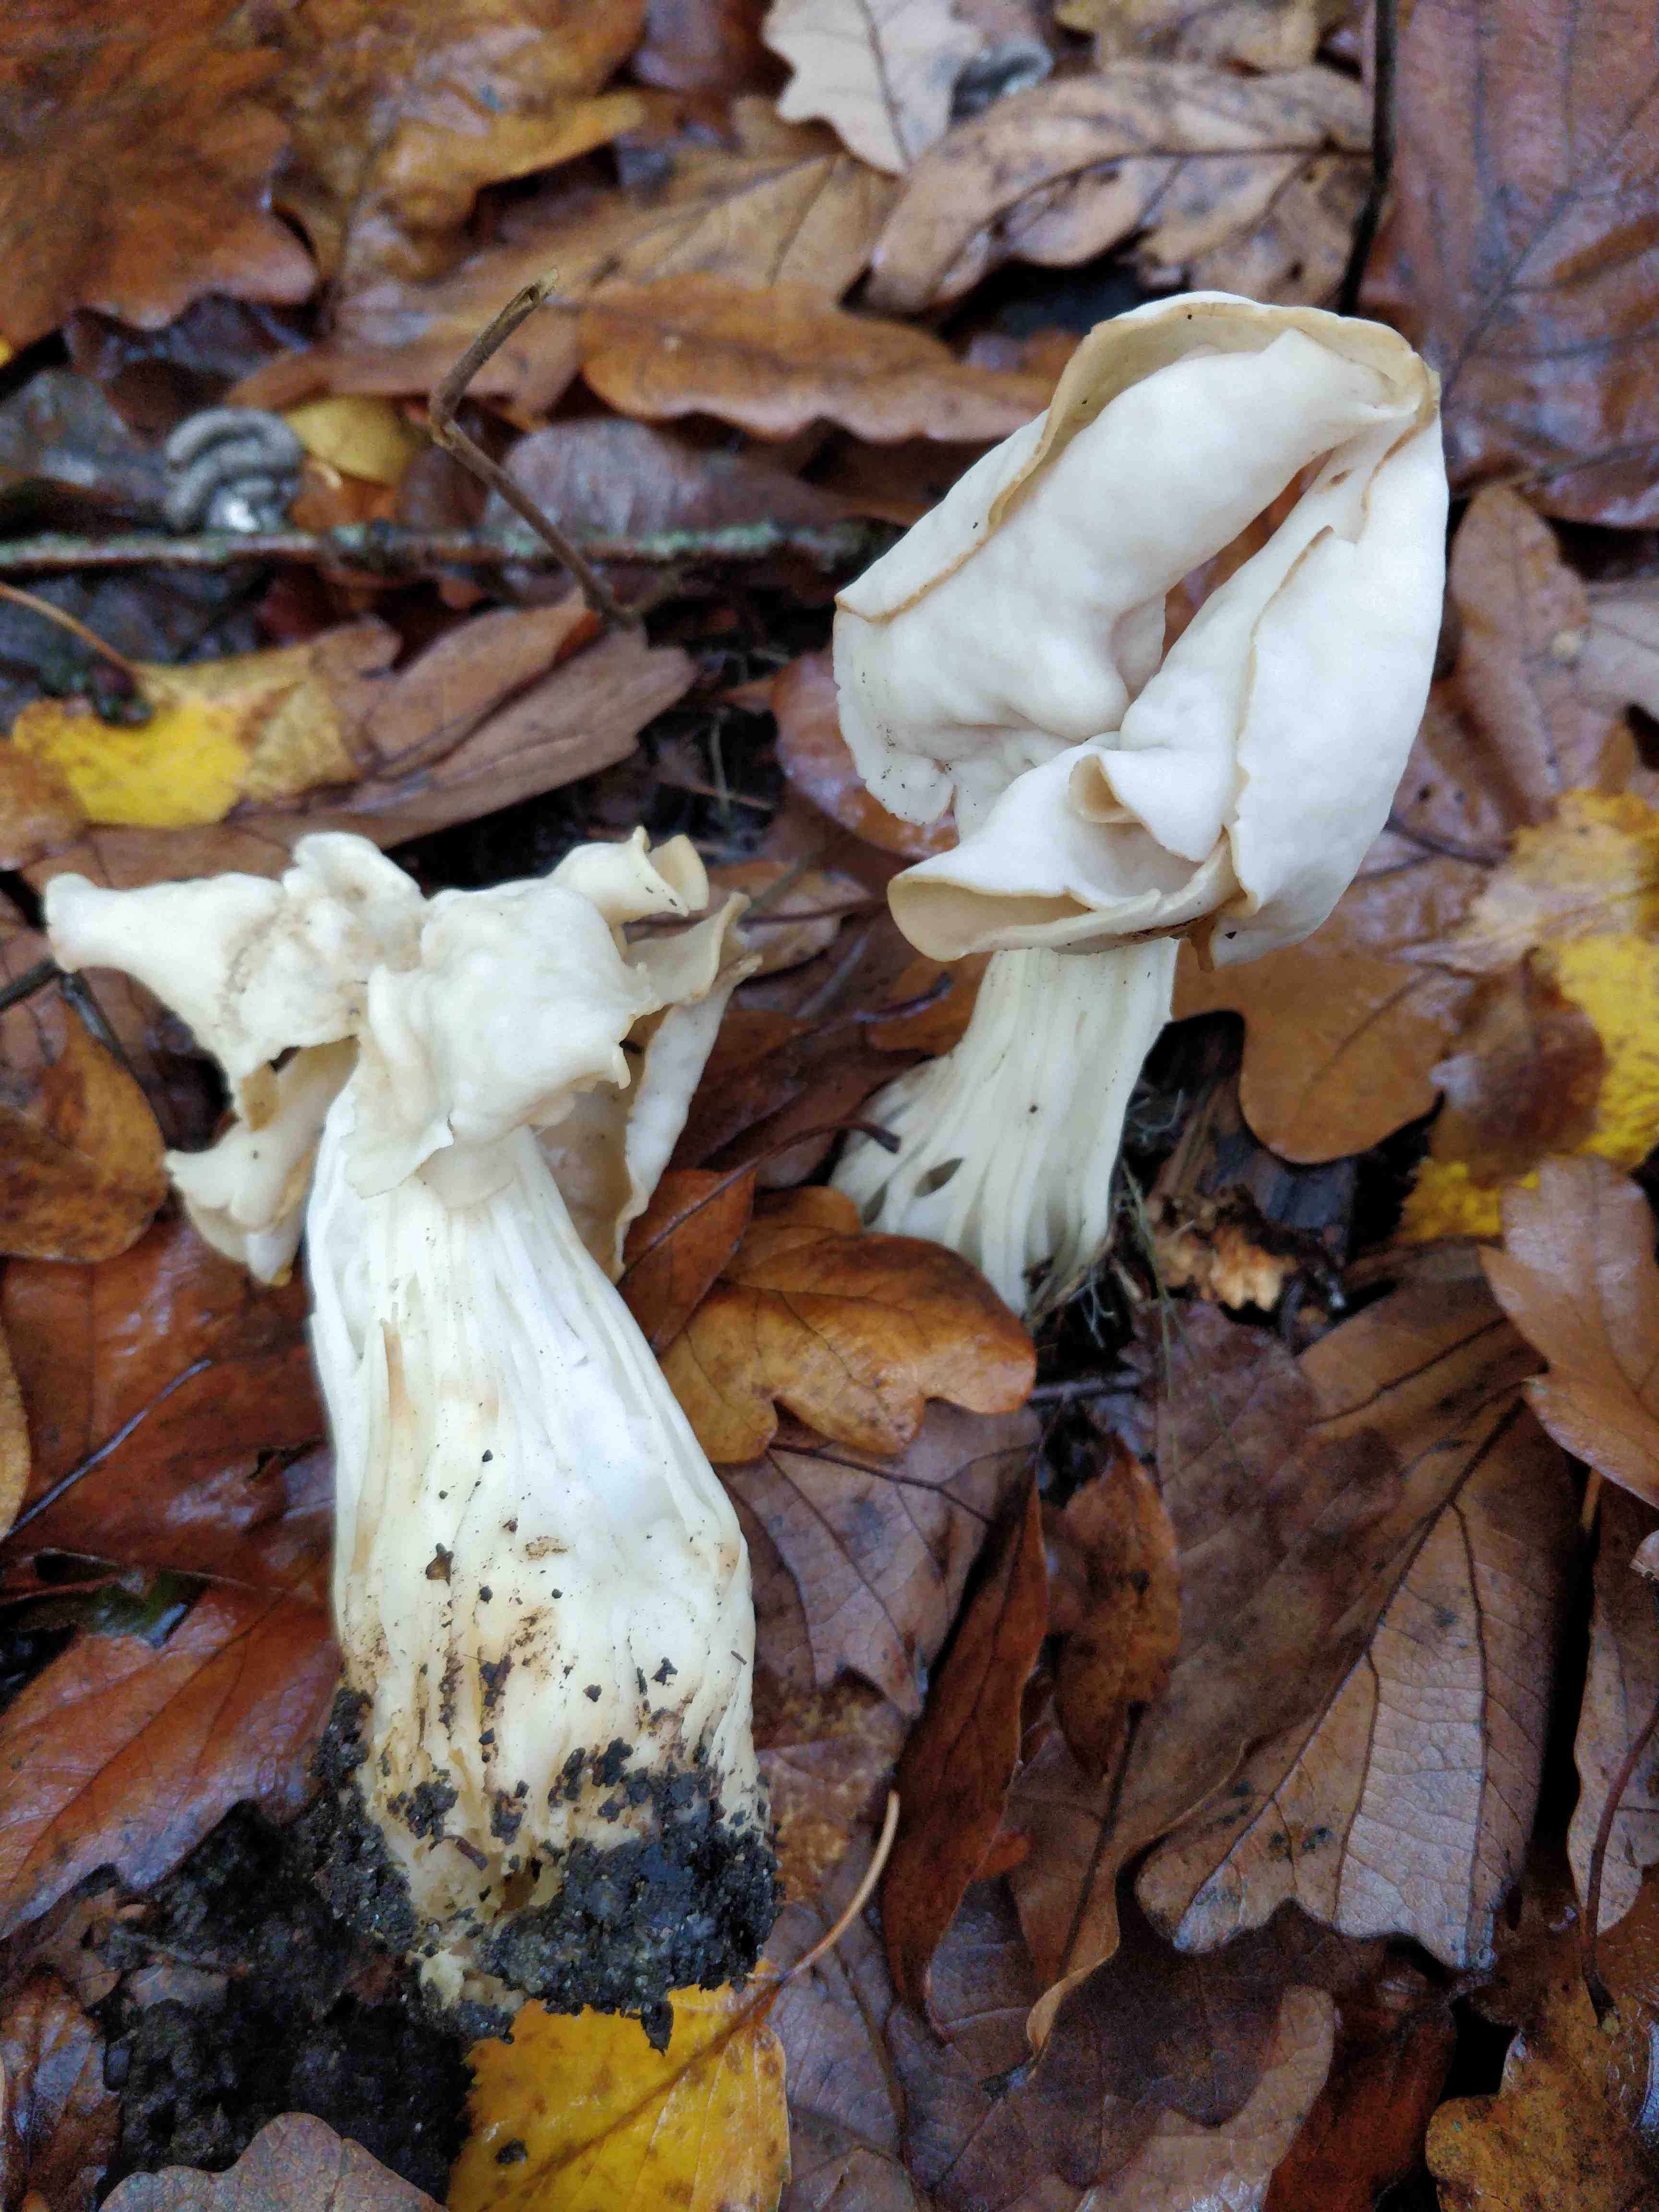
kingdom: Fungi
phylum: Ascomycota
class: Pezizomycetes
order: Pezizales
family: Helvellaceae
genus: Helvella
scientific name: Helvella crispa
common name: kruset foldhat
